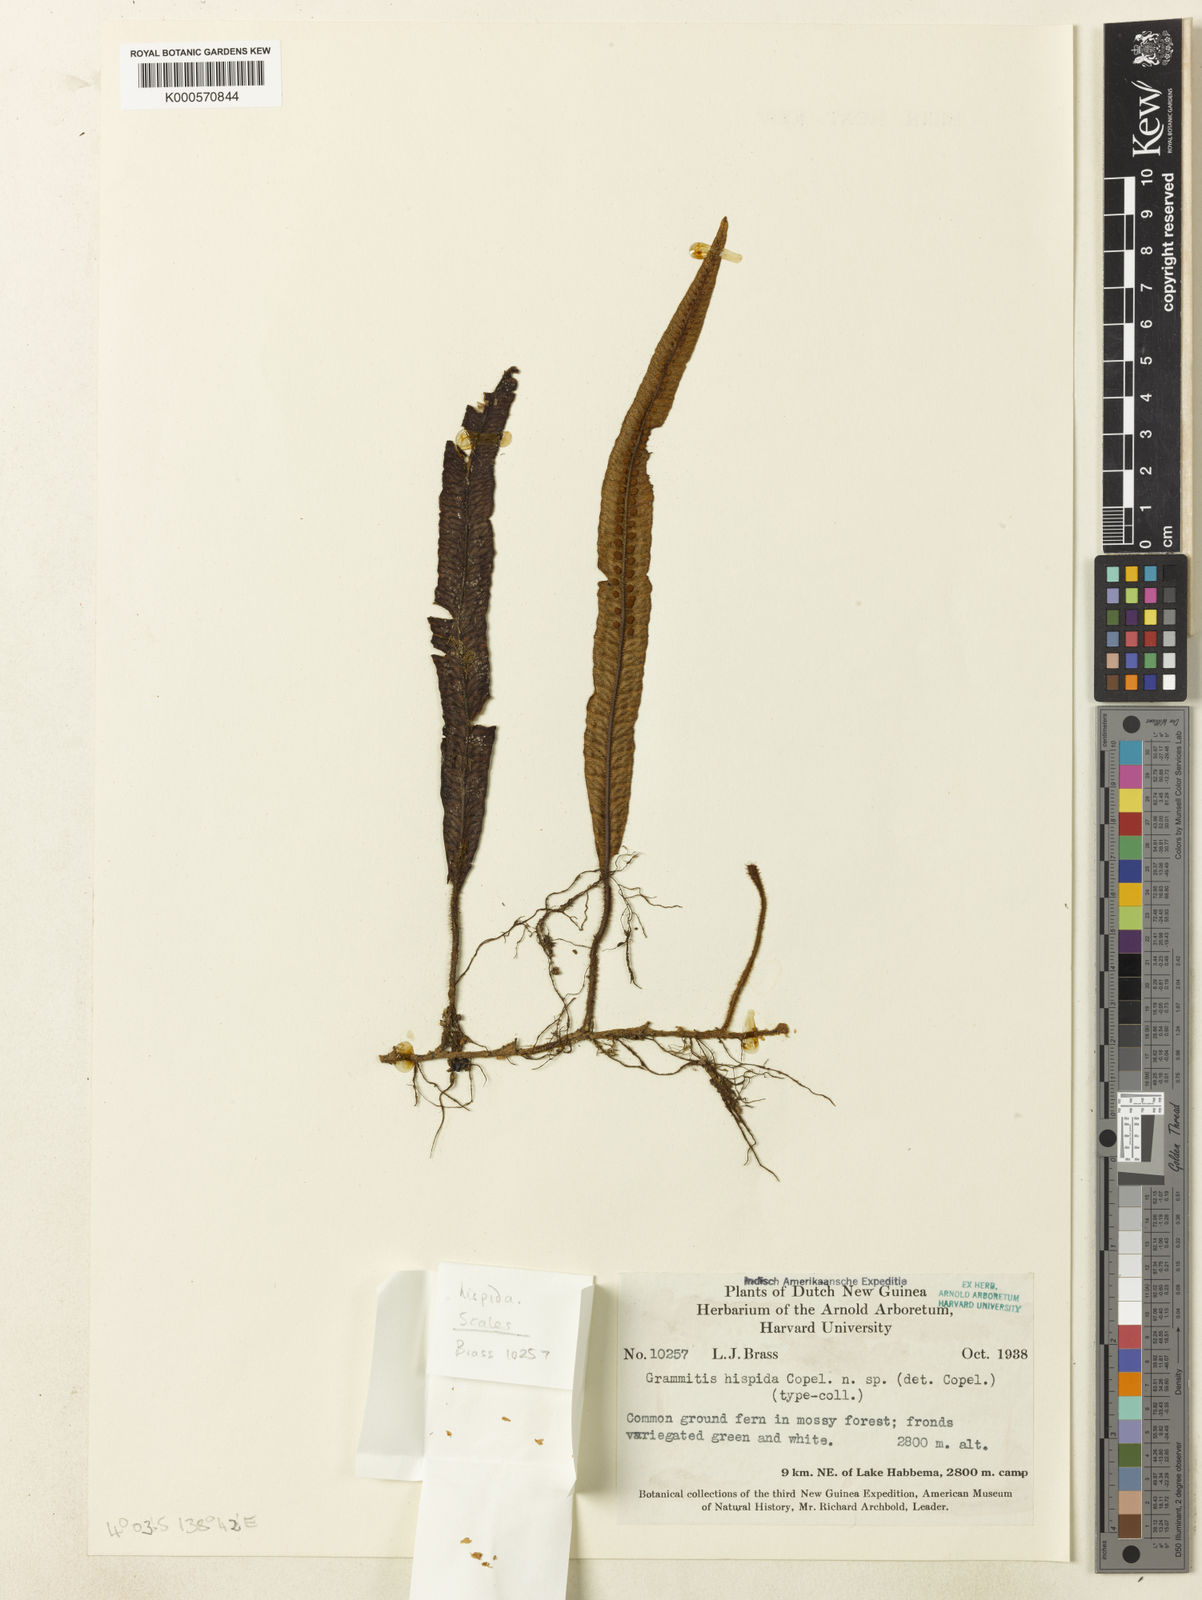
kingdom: Plantae
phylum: Tracheophyta
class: Polypodiopsida
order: Polypodiales
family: Polypodiaceae
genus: Oreogrammitis
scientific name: Oreogrammitis hispida
